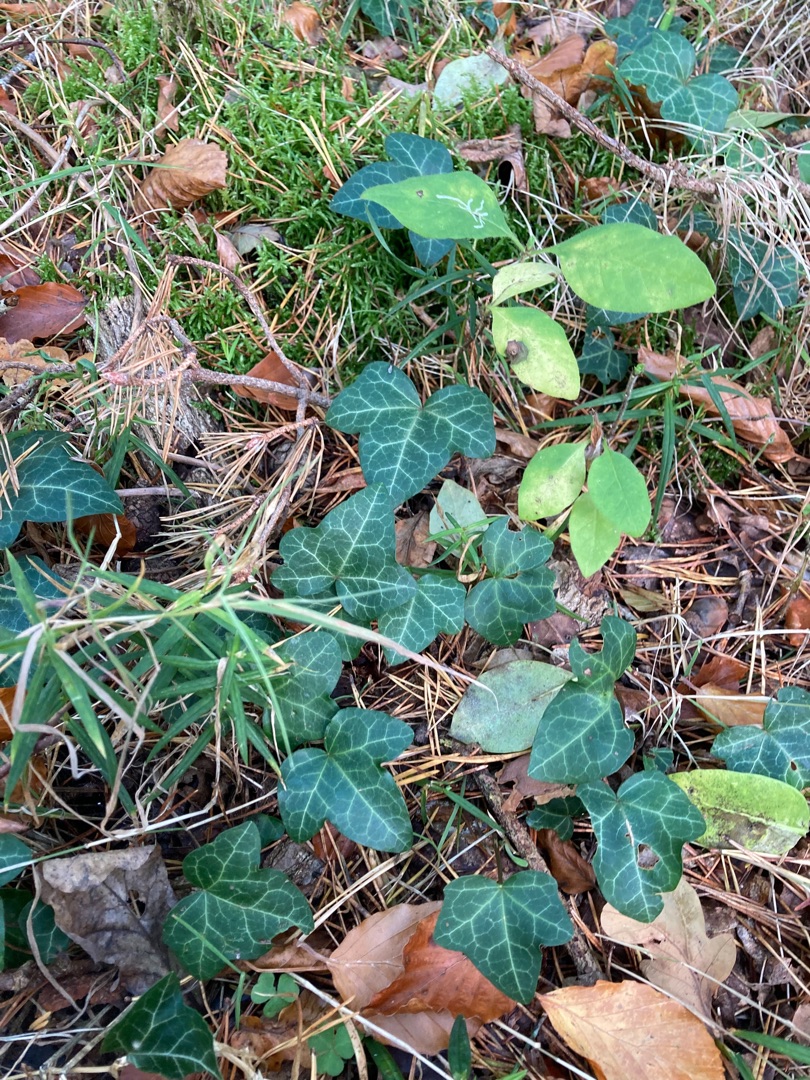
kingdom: Plantae
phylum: Tracheophyta
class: Magnoliopsida
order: Apiales
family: Araliaceae
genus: Hedera
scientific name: Hedera helix
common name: Vedbend
